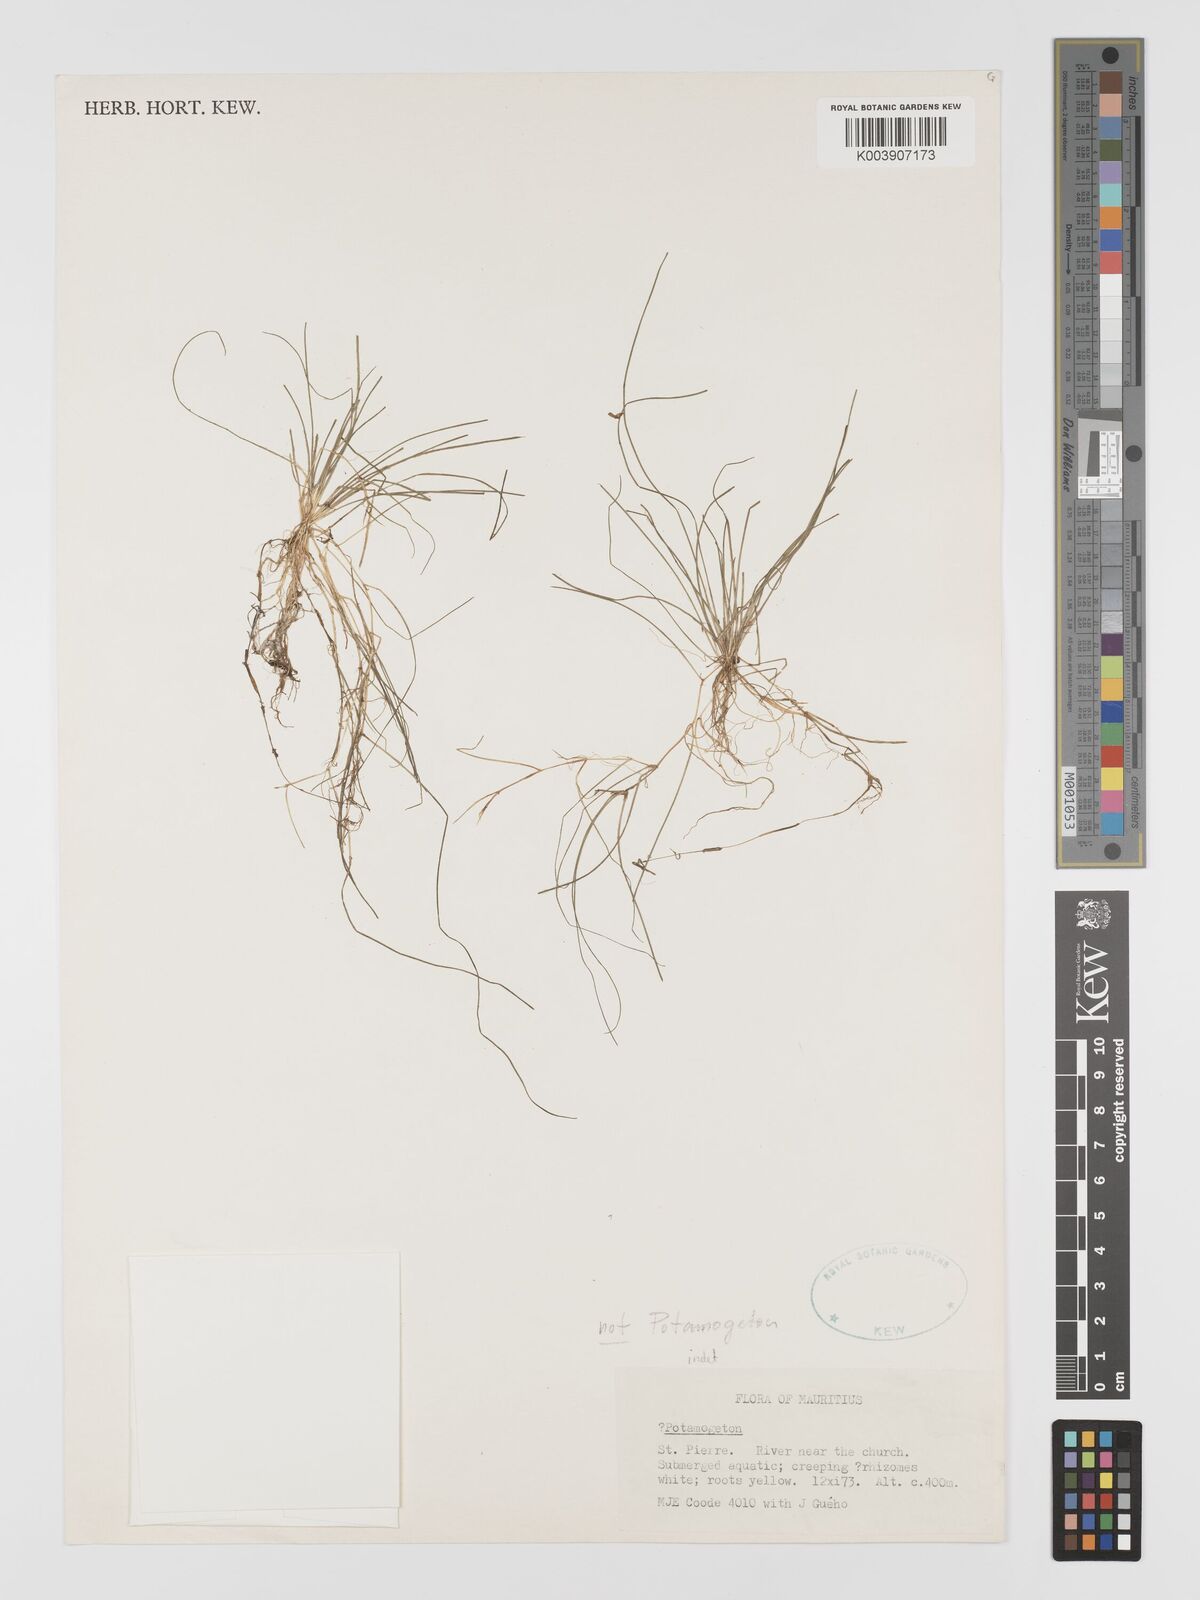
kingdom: Plantae
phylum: Tracheophyta
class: Liliopsida
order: Alismatales
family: Potamogetonaceae
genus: Potamogeton
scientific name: Potamogeton
